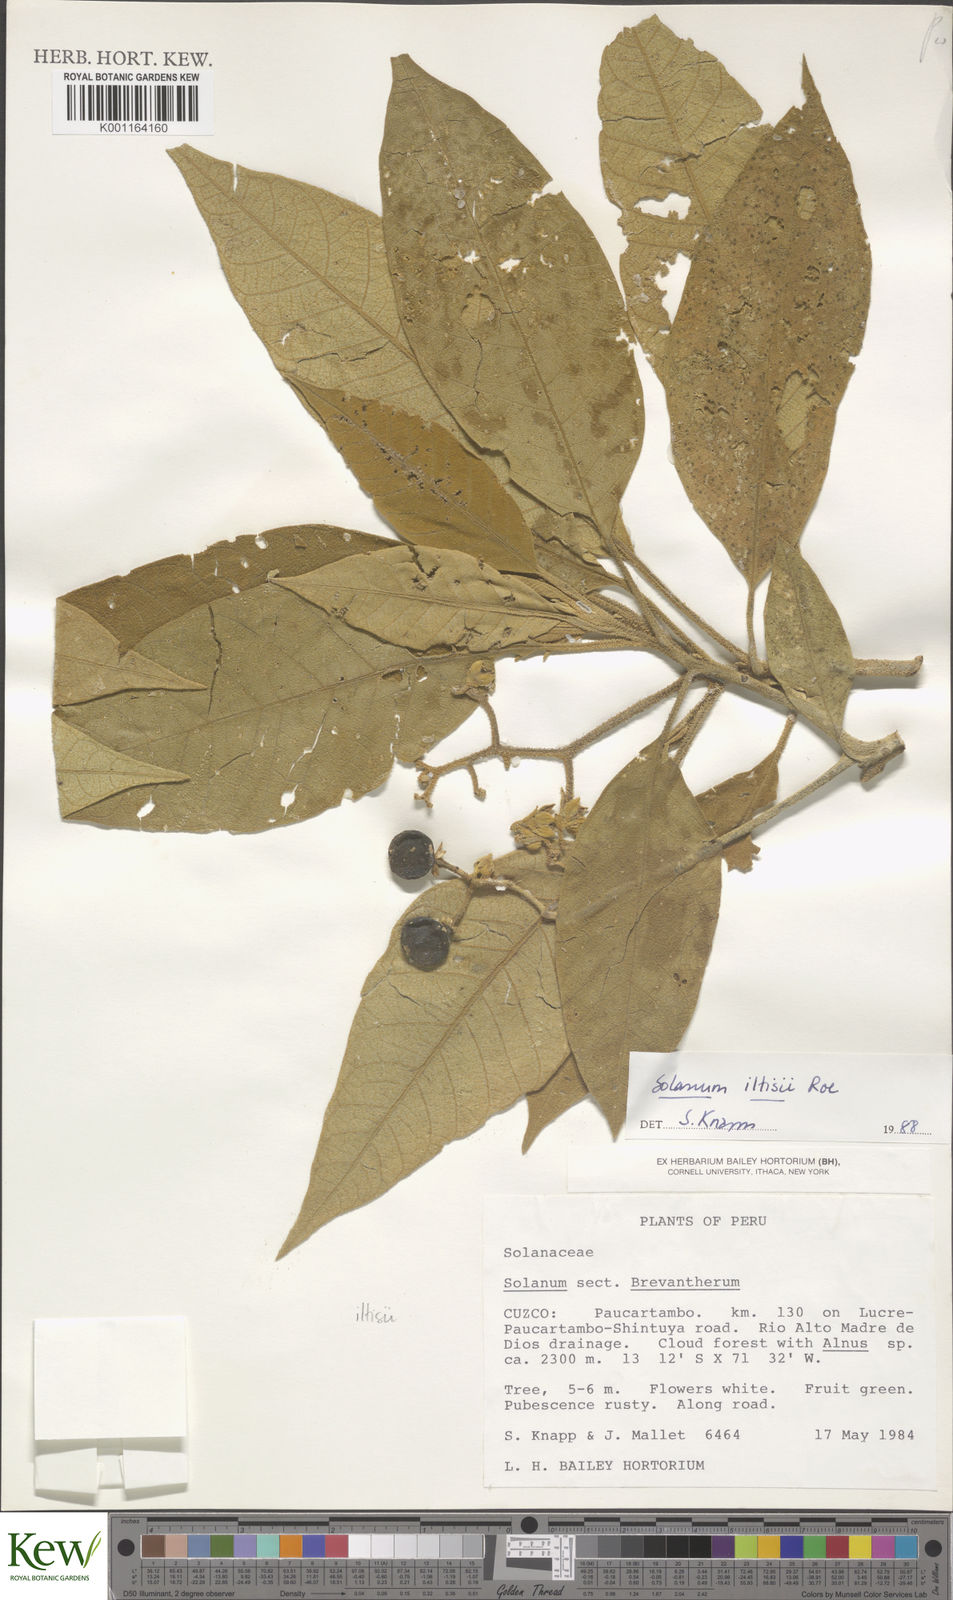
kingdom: Plantae
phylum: Tracheophyta
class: Magnoliopsida
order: Solanales
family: Solanaceae
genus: Solanum
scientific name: Solanum iltisii
